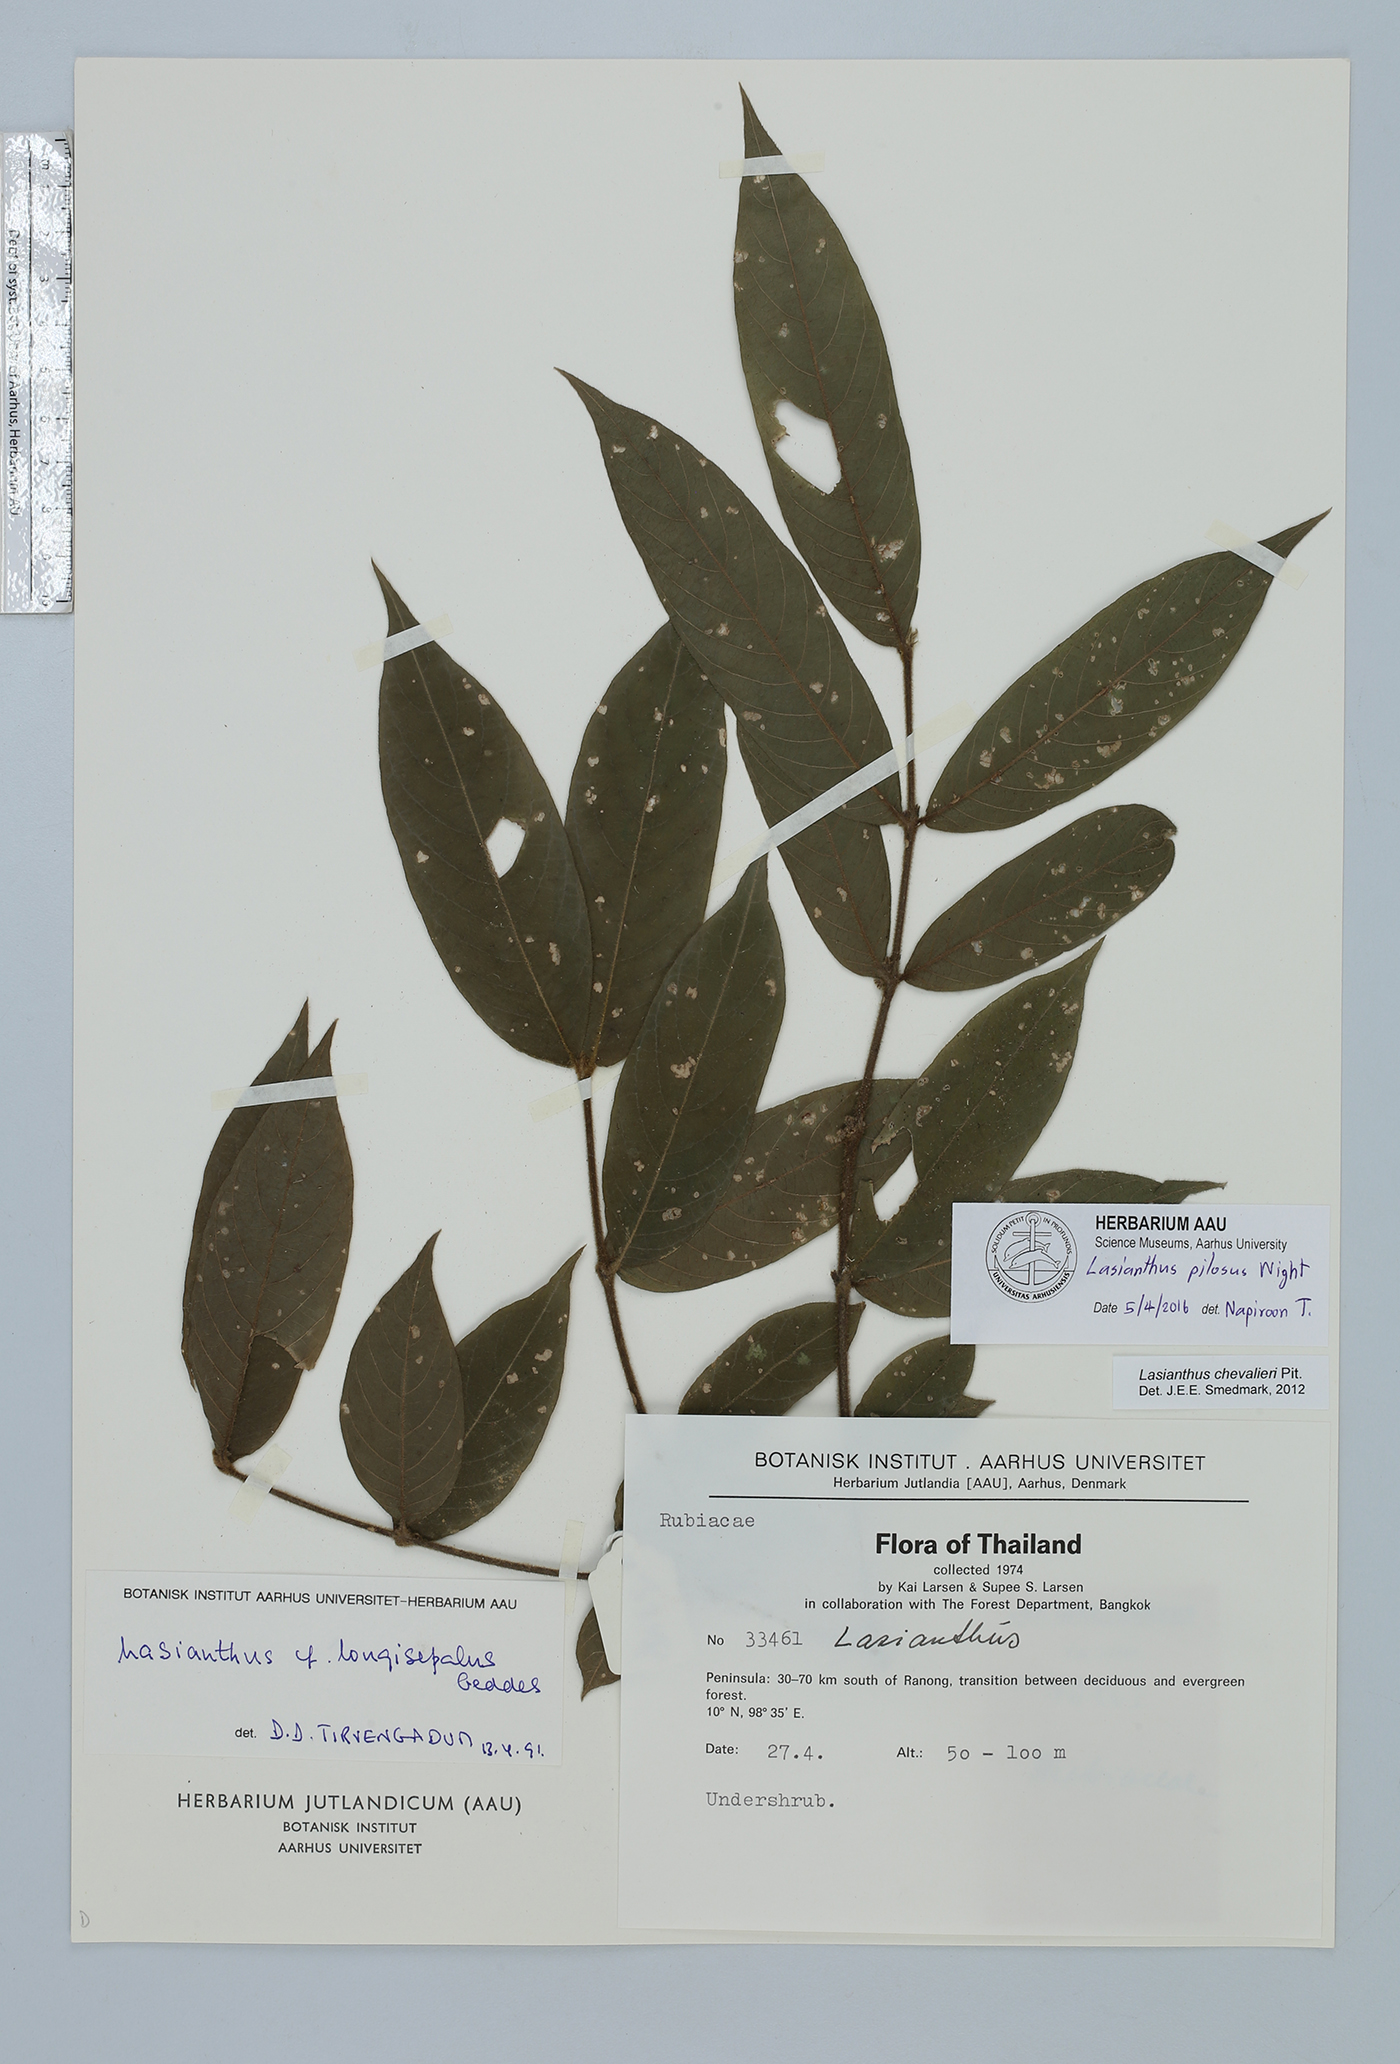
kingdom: Plantae
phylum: Tracheophyta
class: Magnoliopsida
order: Gentianales
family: Rubiaceae
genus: Lasianthus
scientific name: Lasianthus pilosus
